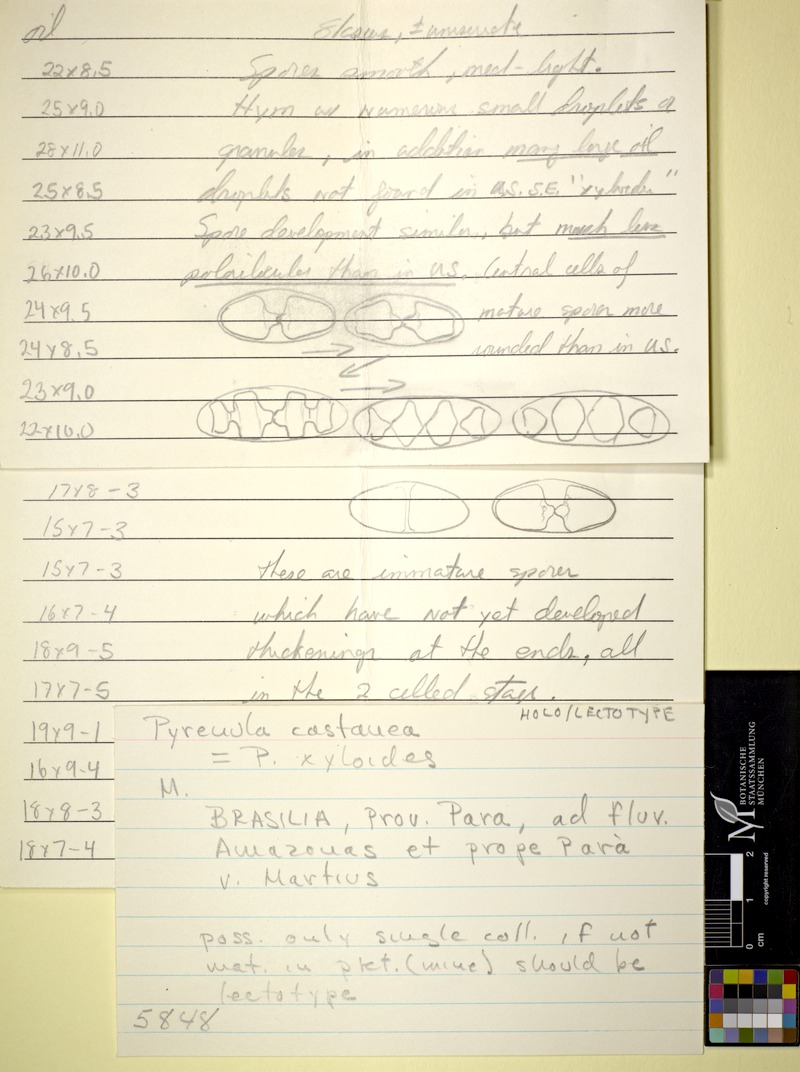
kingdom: Fungi
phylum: Ascomycota
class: Eurotiomycetes
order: Pyrenulales
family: Pyrenulaceae
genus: Pyrenula
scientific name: Pyrenula mamillana
